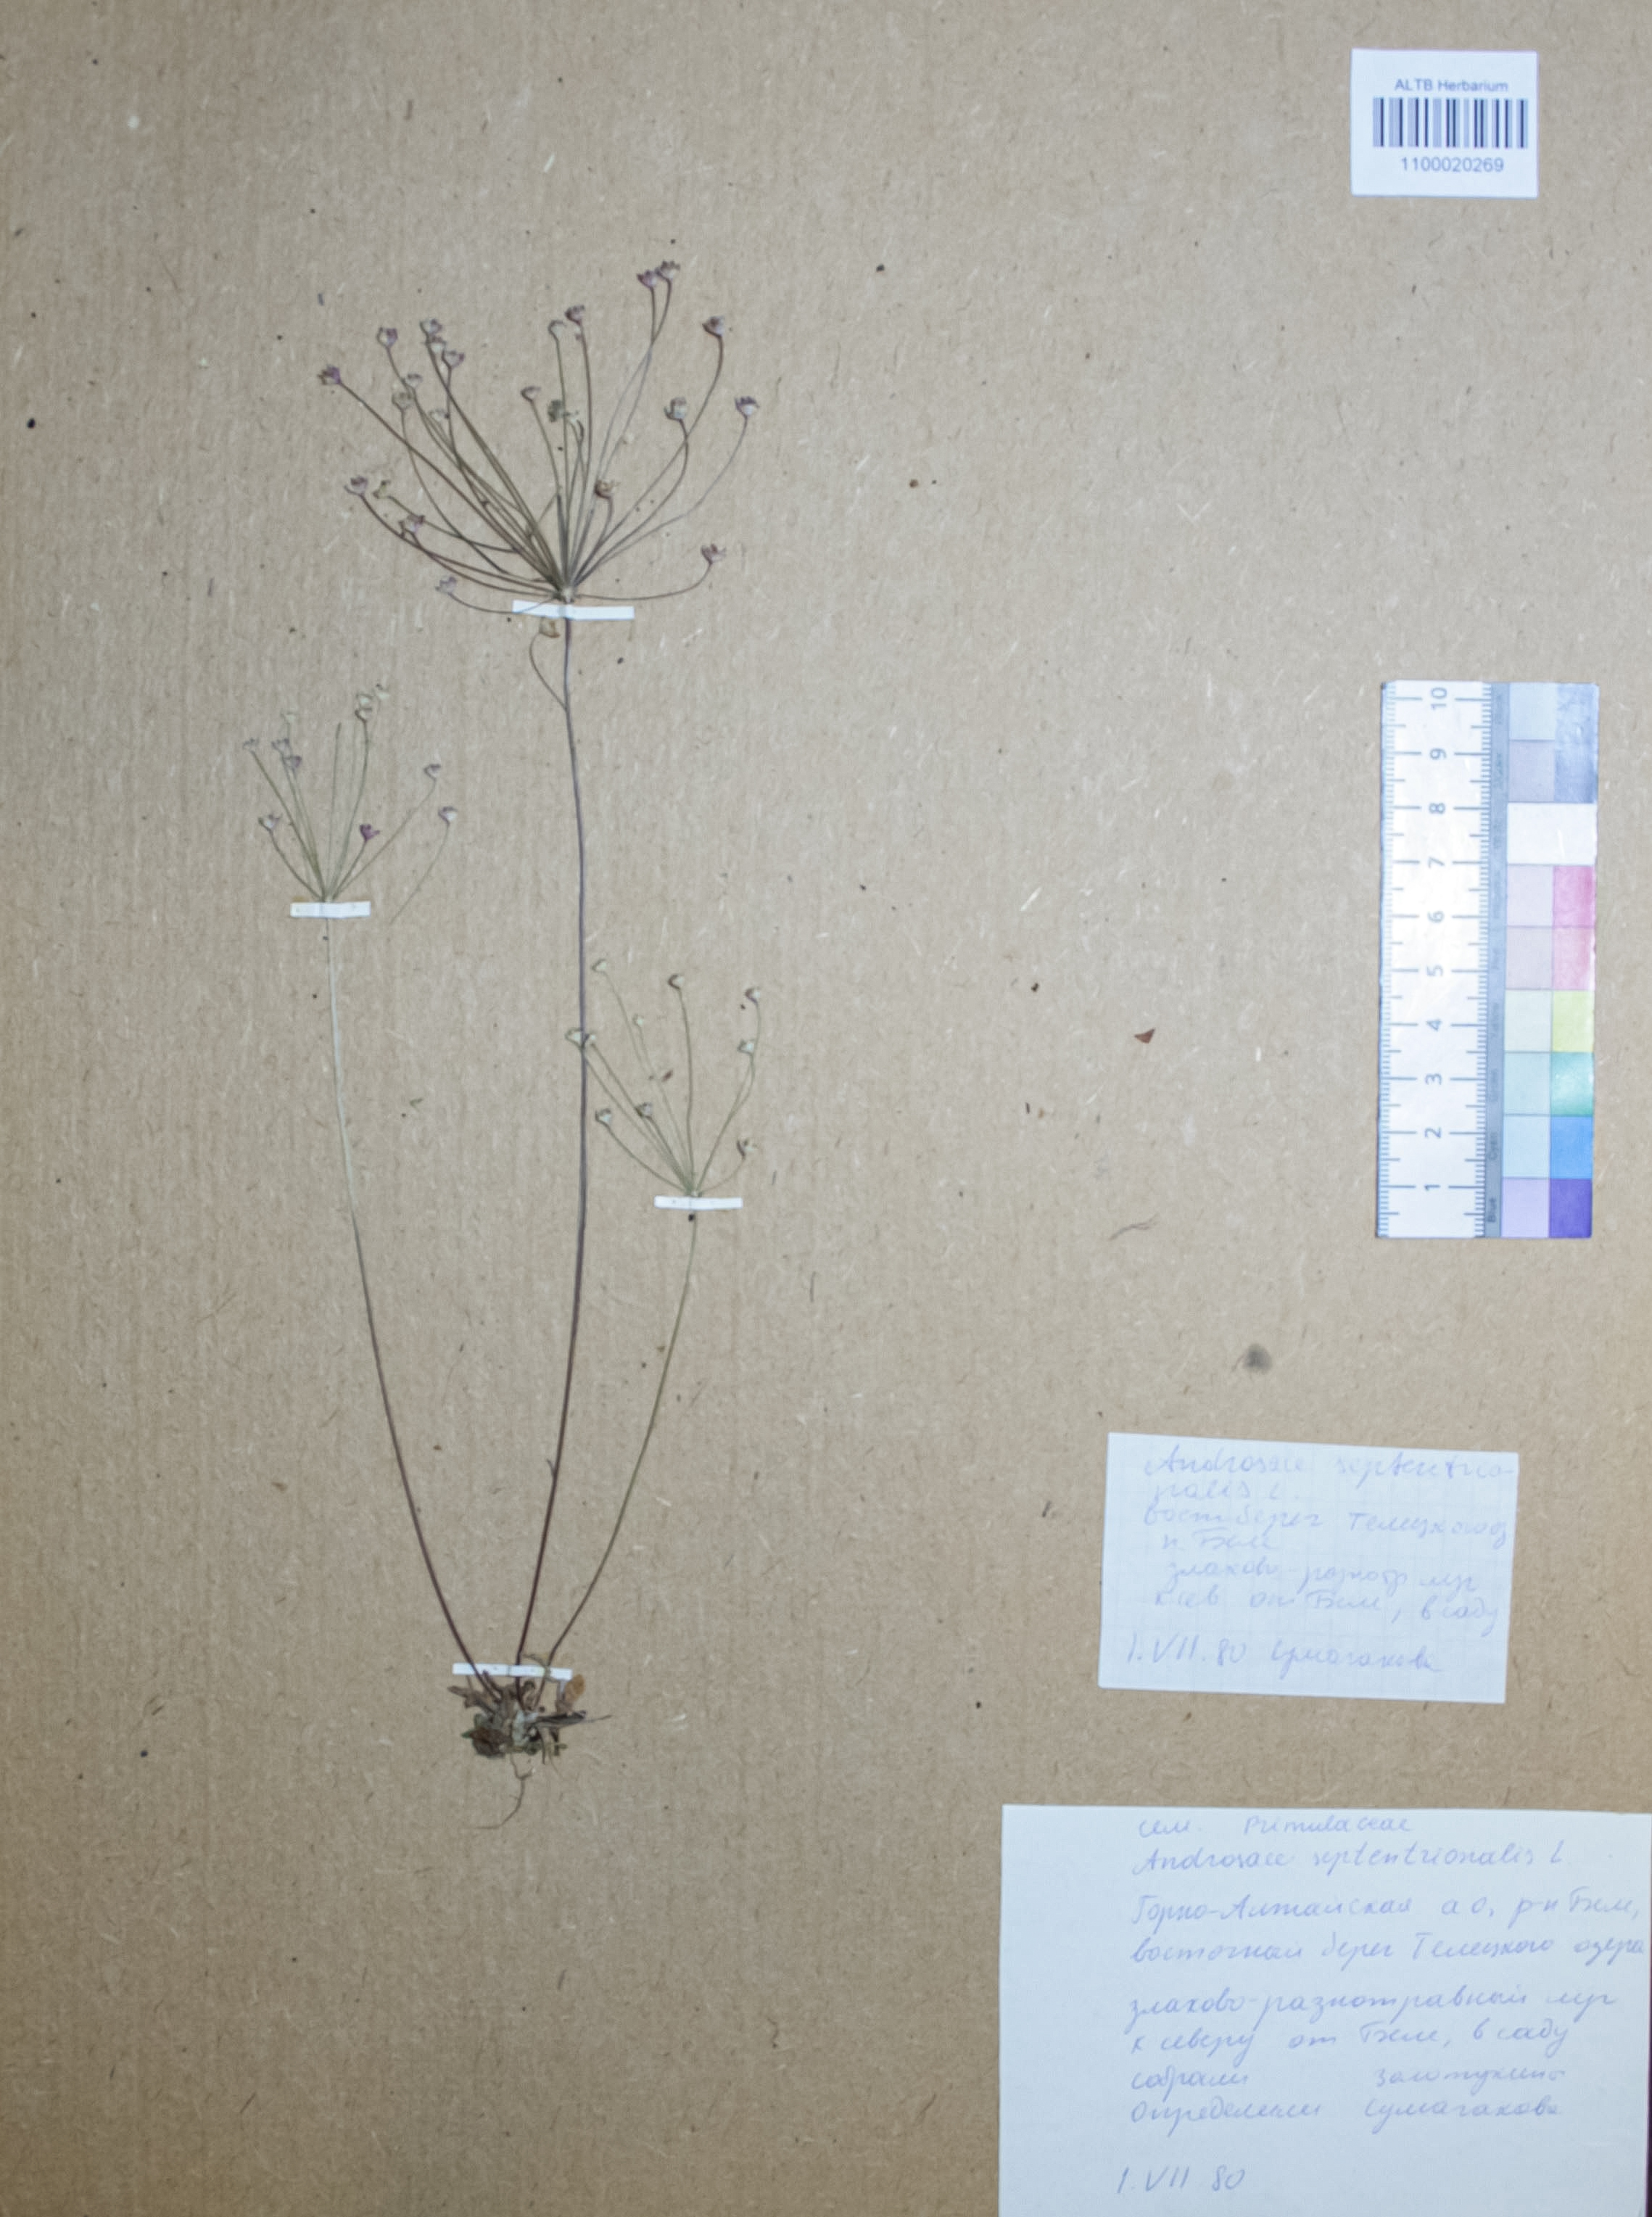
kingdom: Plantae
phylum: Tracheophyta
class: Magnoliopsida
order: Ericales
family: Primulaceae
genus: Androsace
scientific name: Androsace septentrionalis
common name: Hairy northern fairy-candelabra
